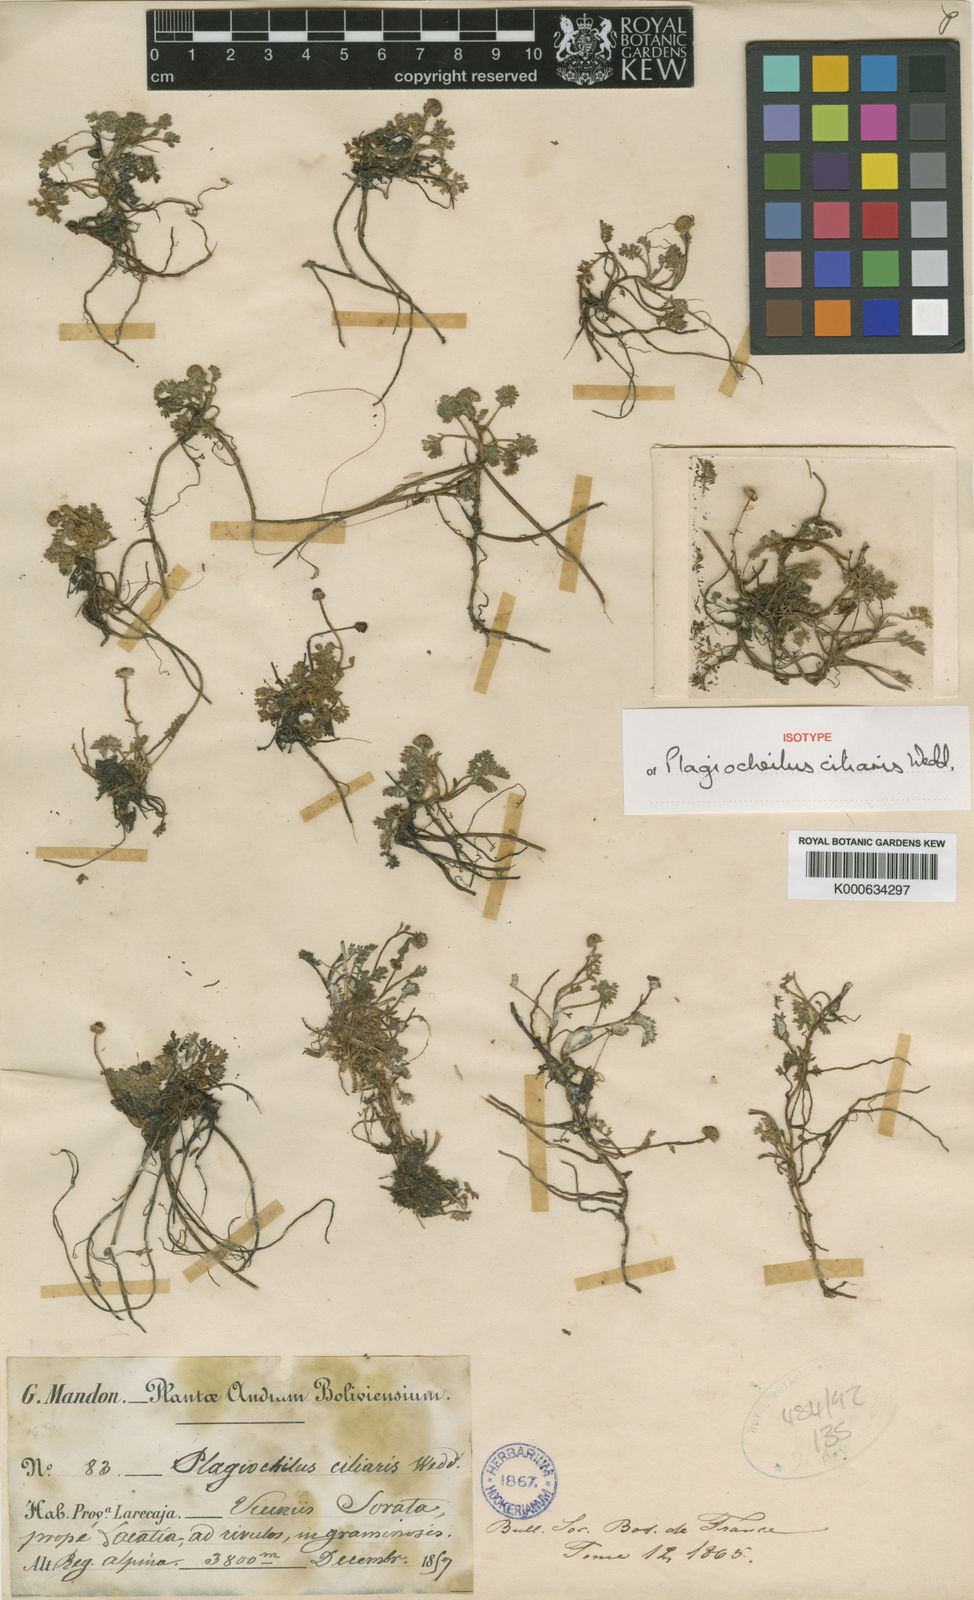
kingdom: Plantae
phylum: Tracheophyta
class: Magnoliopsida
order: Asterales
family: Asteraceae
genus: Plagiocheilus
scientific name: Plagiocheilus ciliaris
